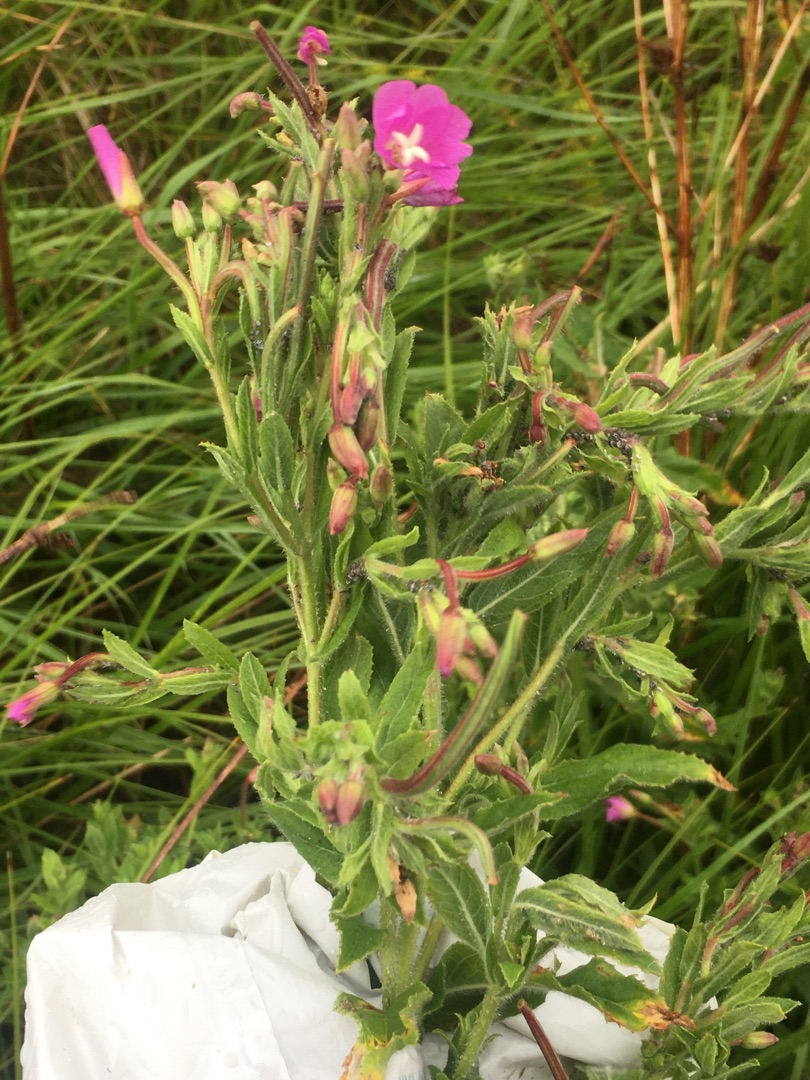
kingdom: Plantae
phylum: Tracheophyta
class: Magnoliopsida
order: Myrtales
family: Onagraceae
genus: Epilobium
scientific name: Epilobium hirsutum
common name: Lådden dueurt
